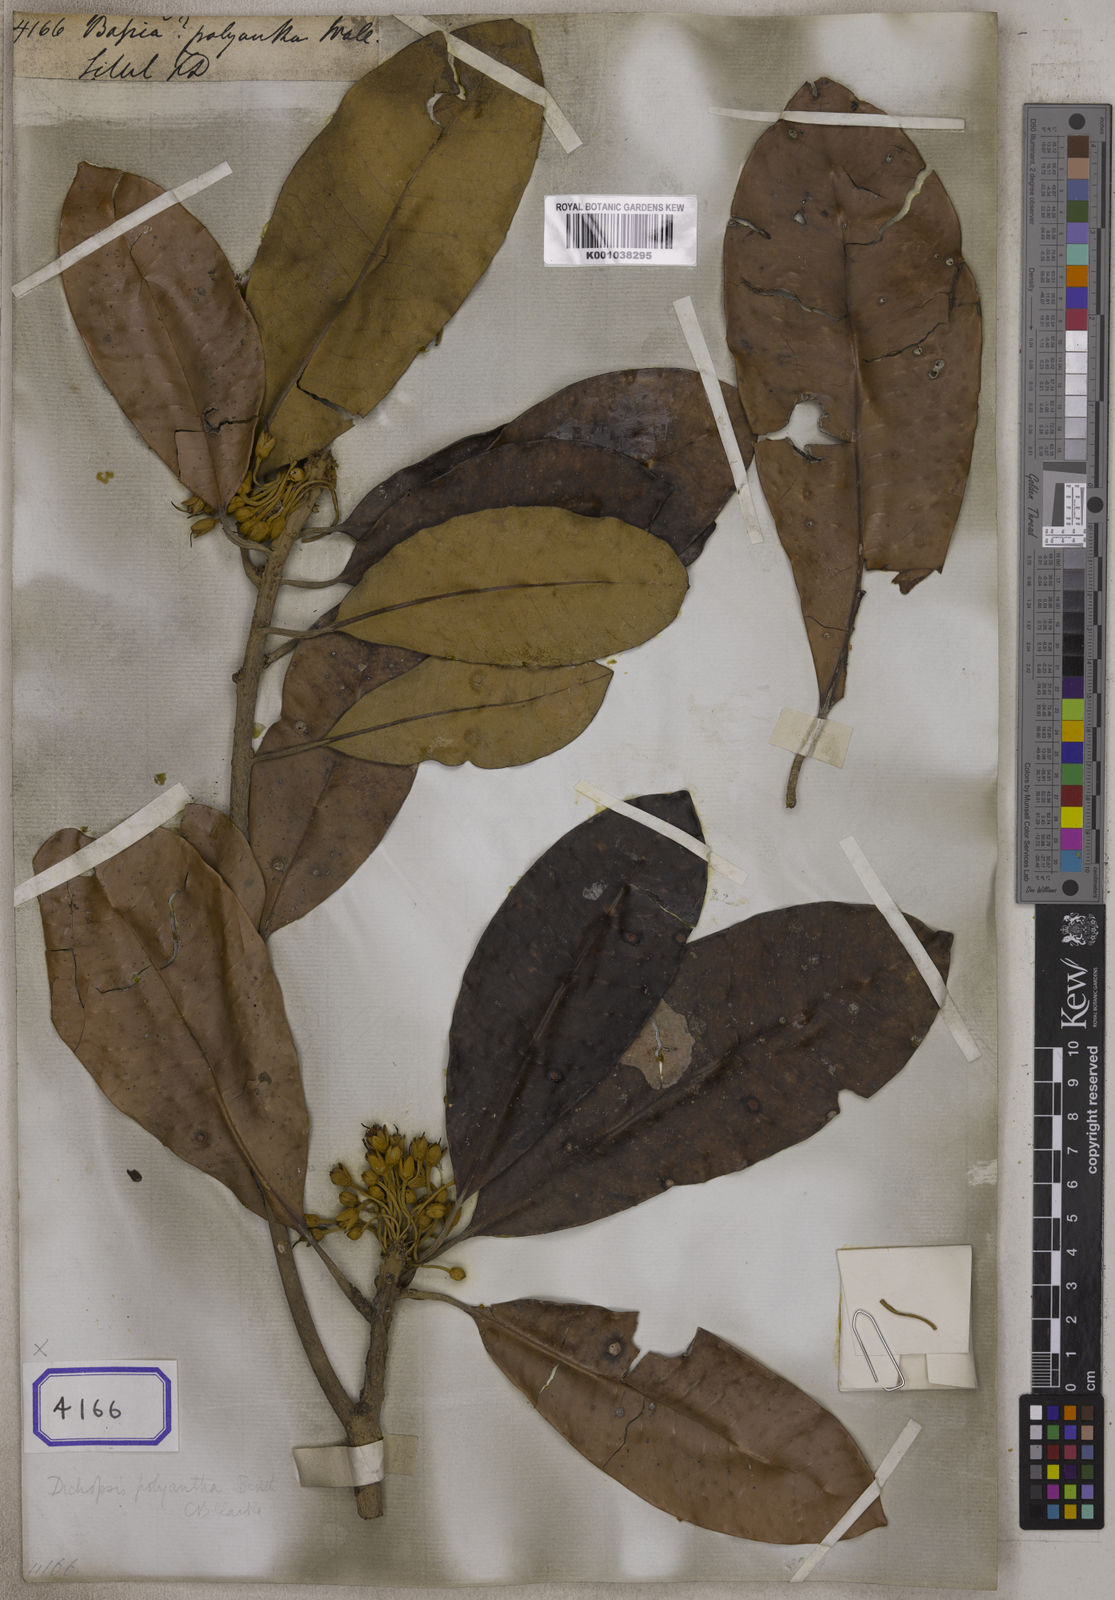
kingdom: Plantae
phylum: Tracheophyta
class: Magnoliopsida
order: Caryophyllales
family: Amaranthaceae
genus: Bassia
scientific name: Bassia
